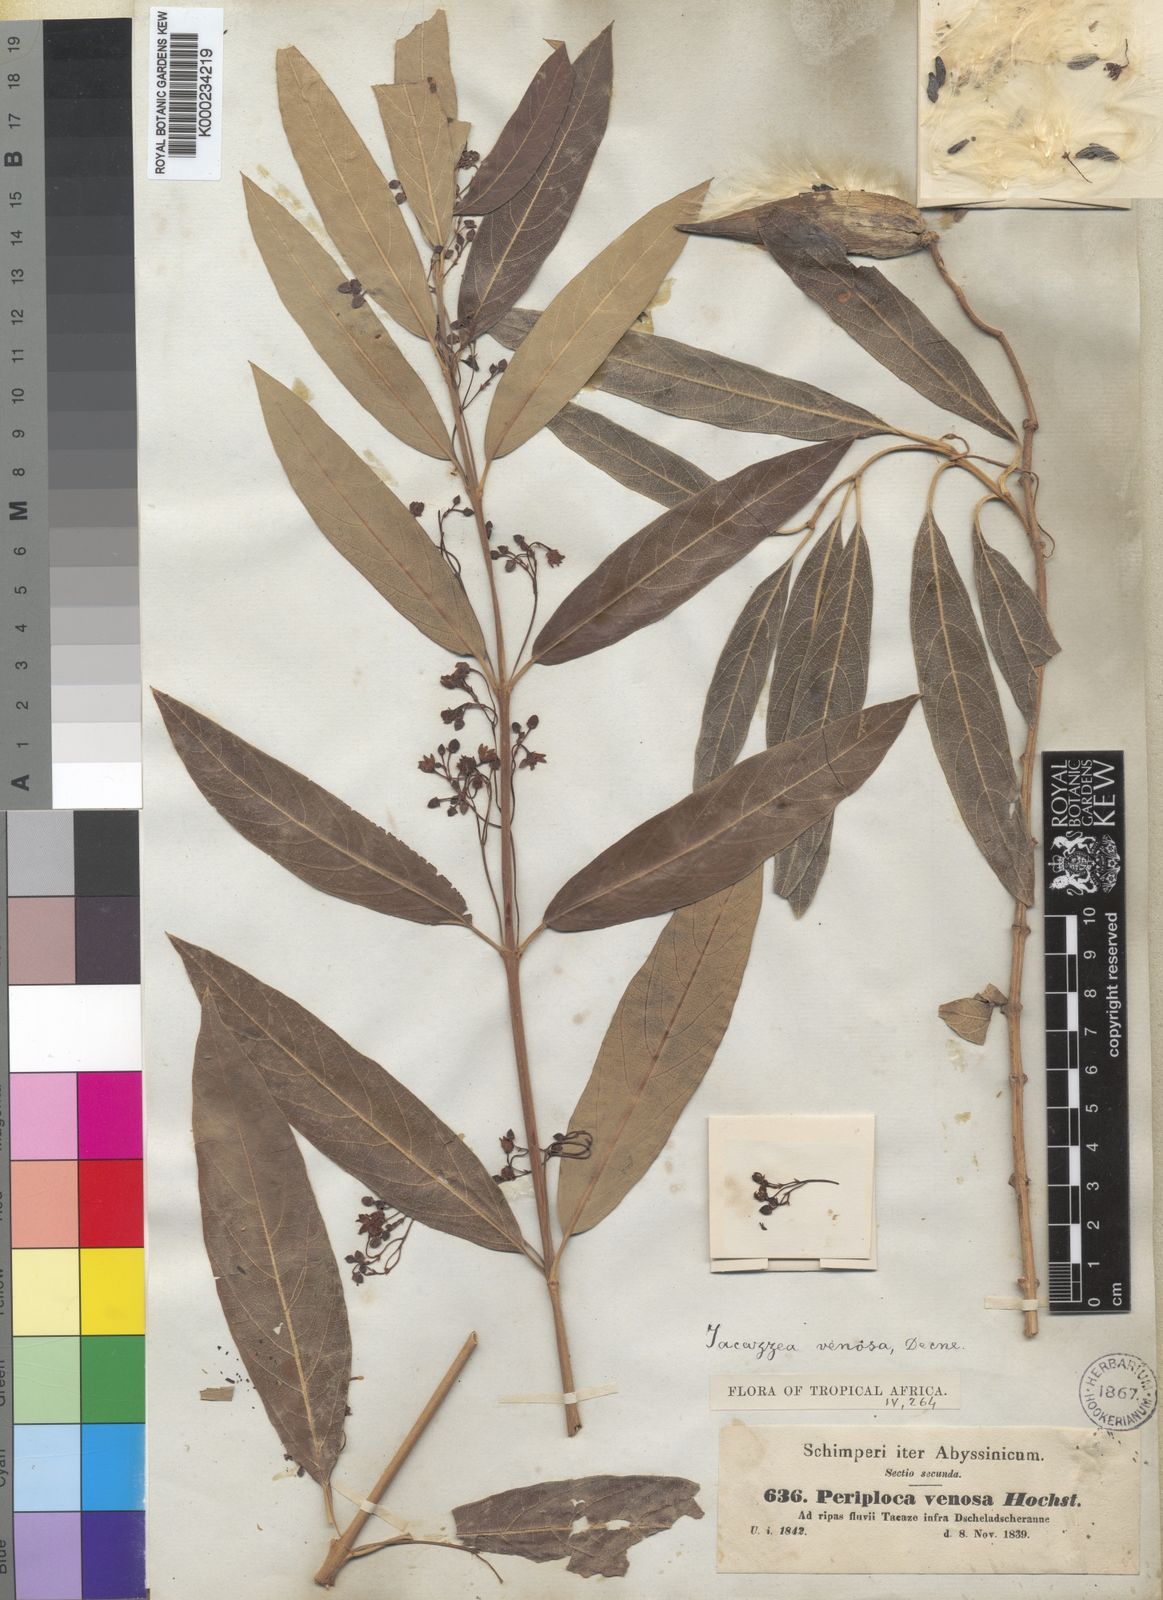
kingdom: Plantae
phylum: Tracheophyta
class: Magnoliopsida
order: Gentianales
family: Apocynaceae
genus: Tacazzea
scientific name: Tacazzea
